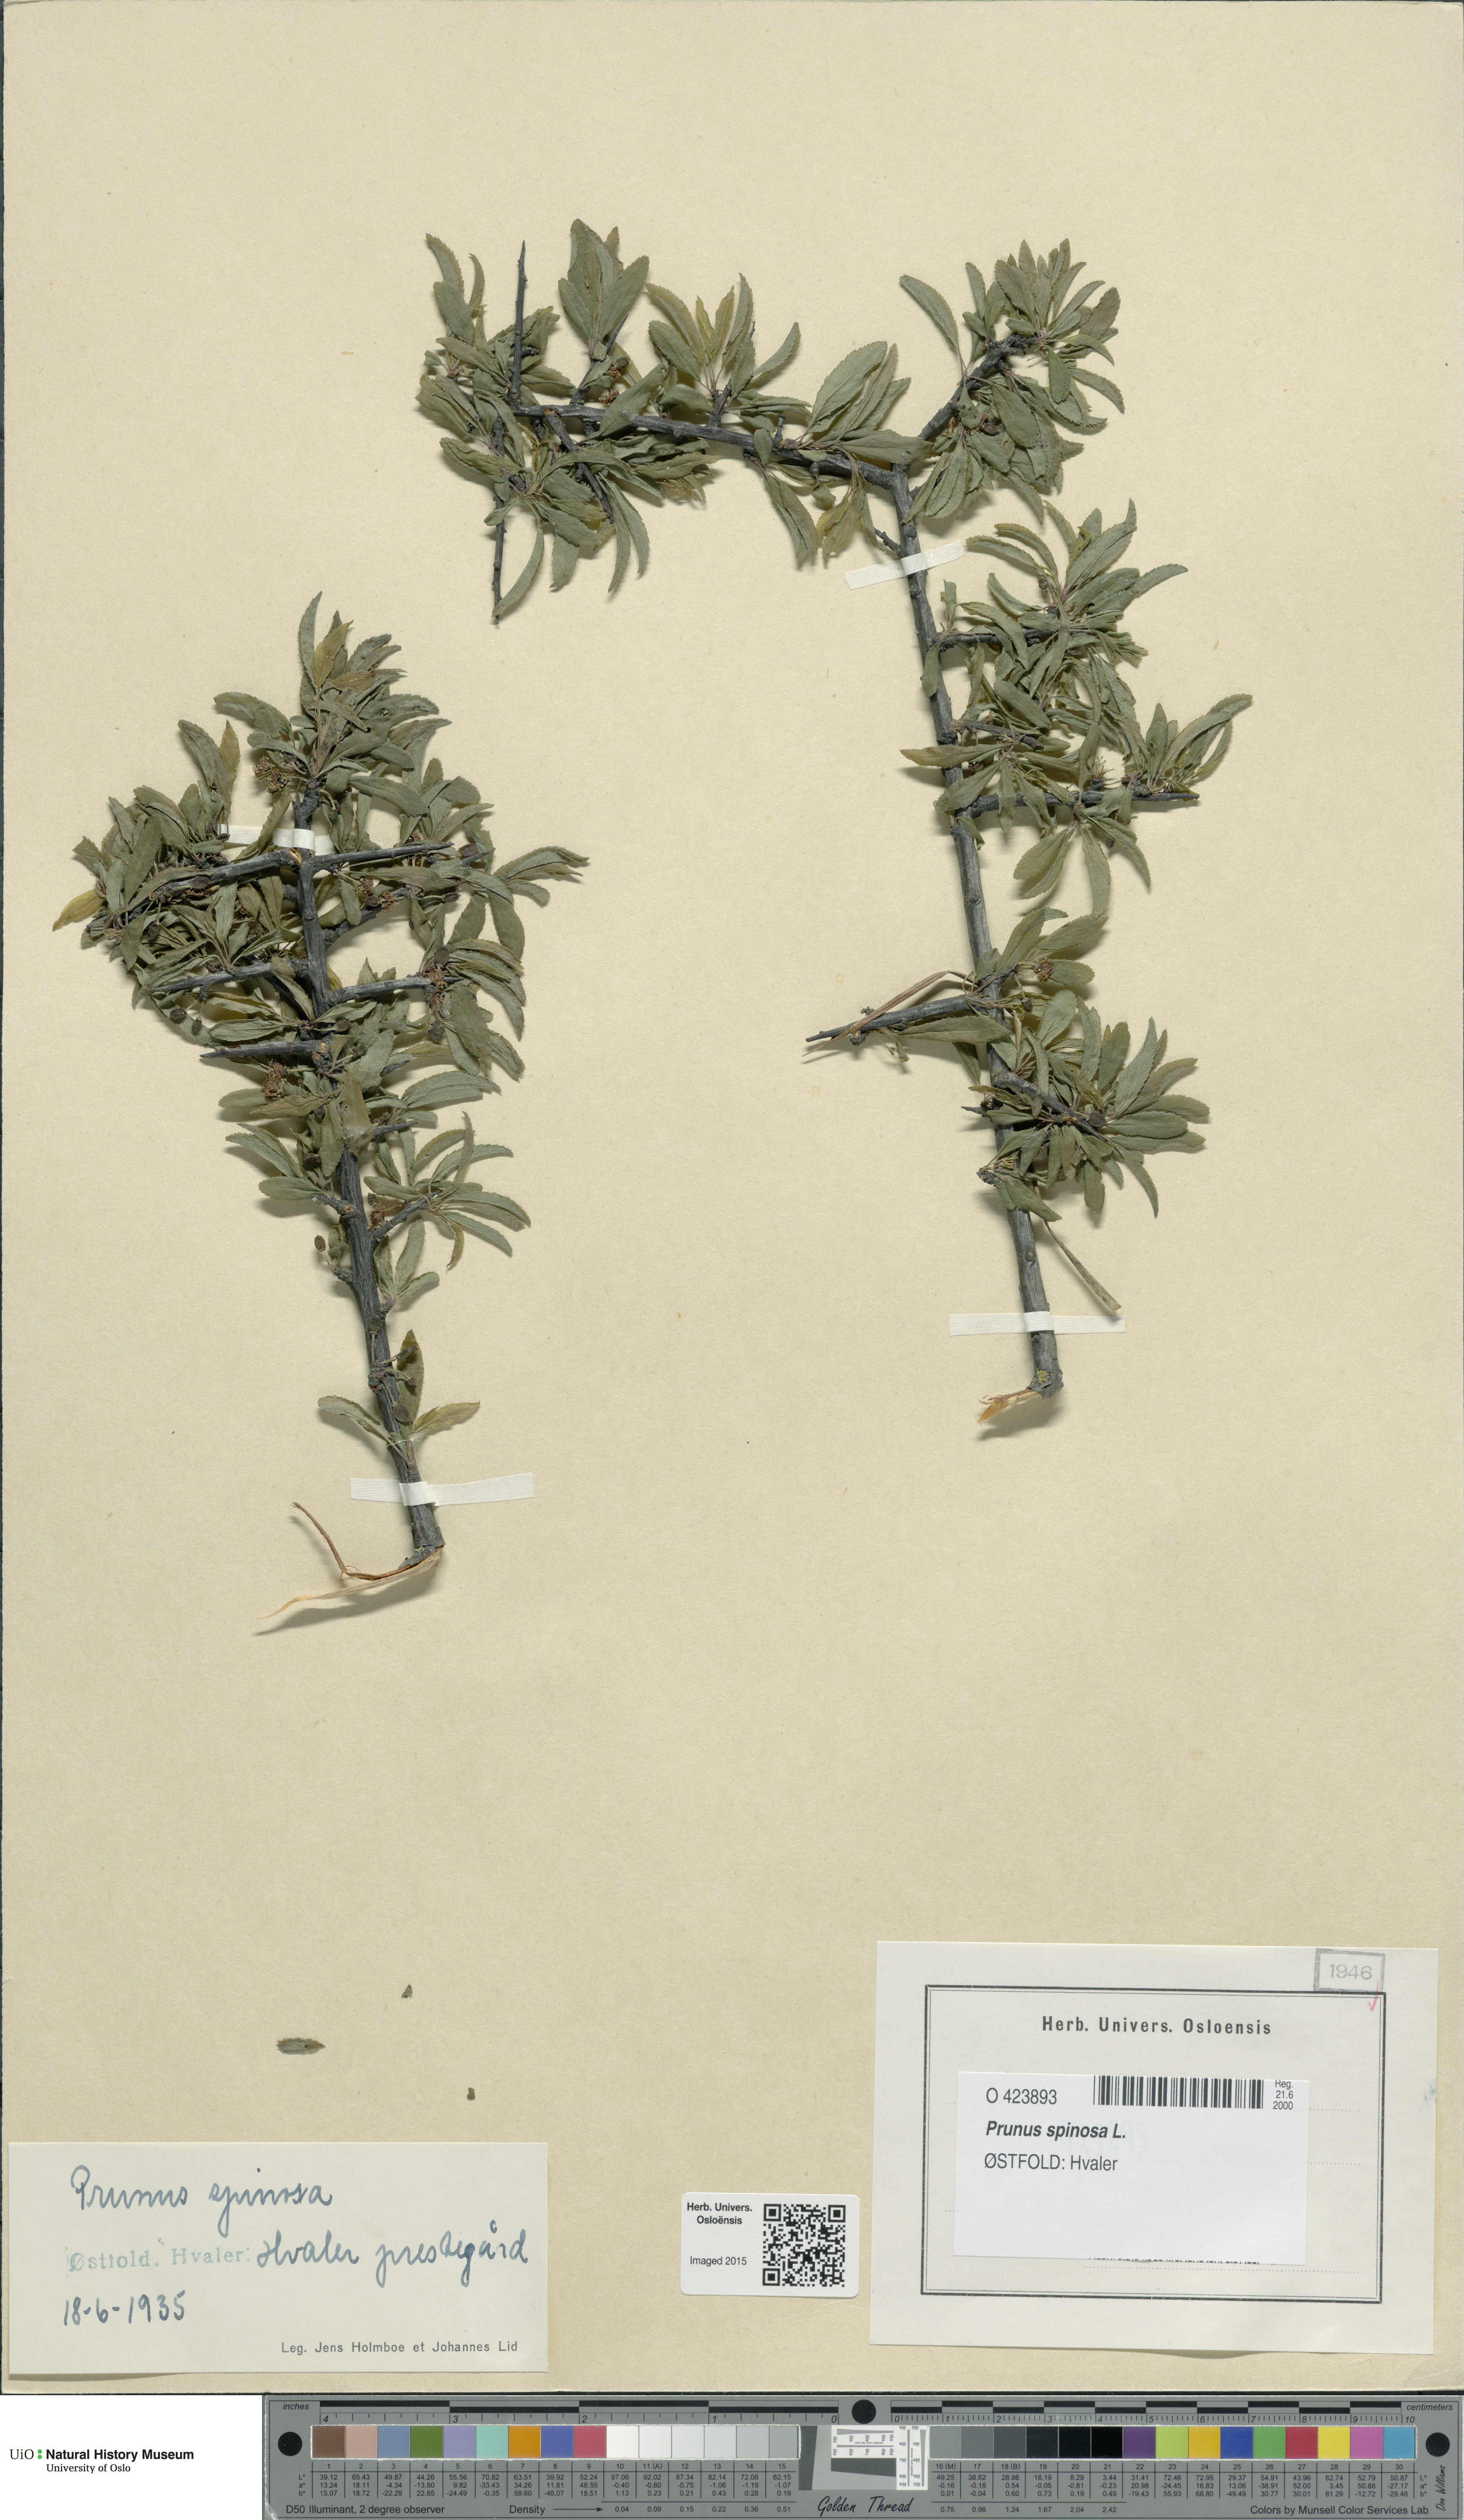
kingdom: Plantae
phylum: Tracheophyta
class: Magnoliopsida
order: Rosales
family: Rosaceae
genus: Prunus
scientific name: Prunus spinosa
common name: Blackthorn
